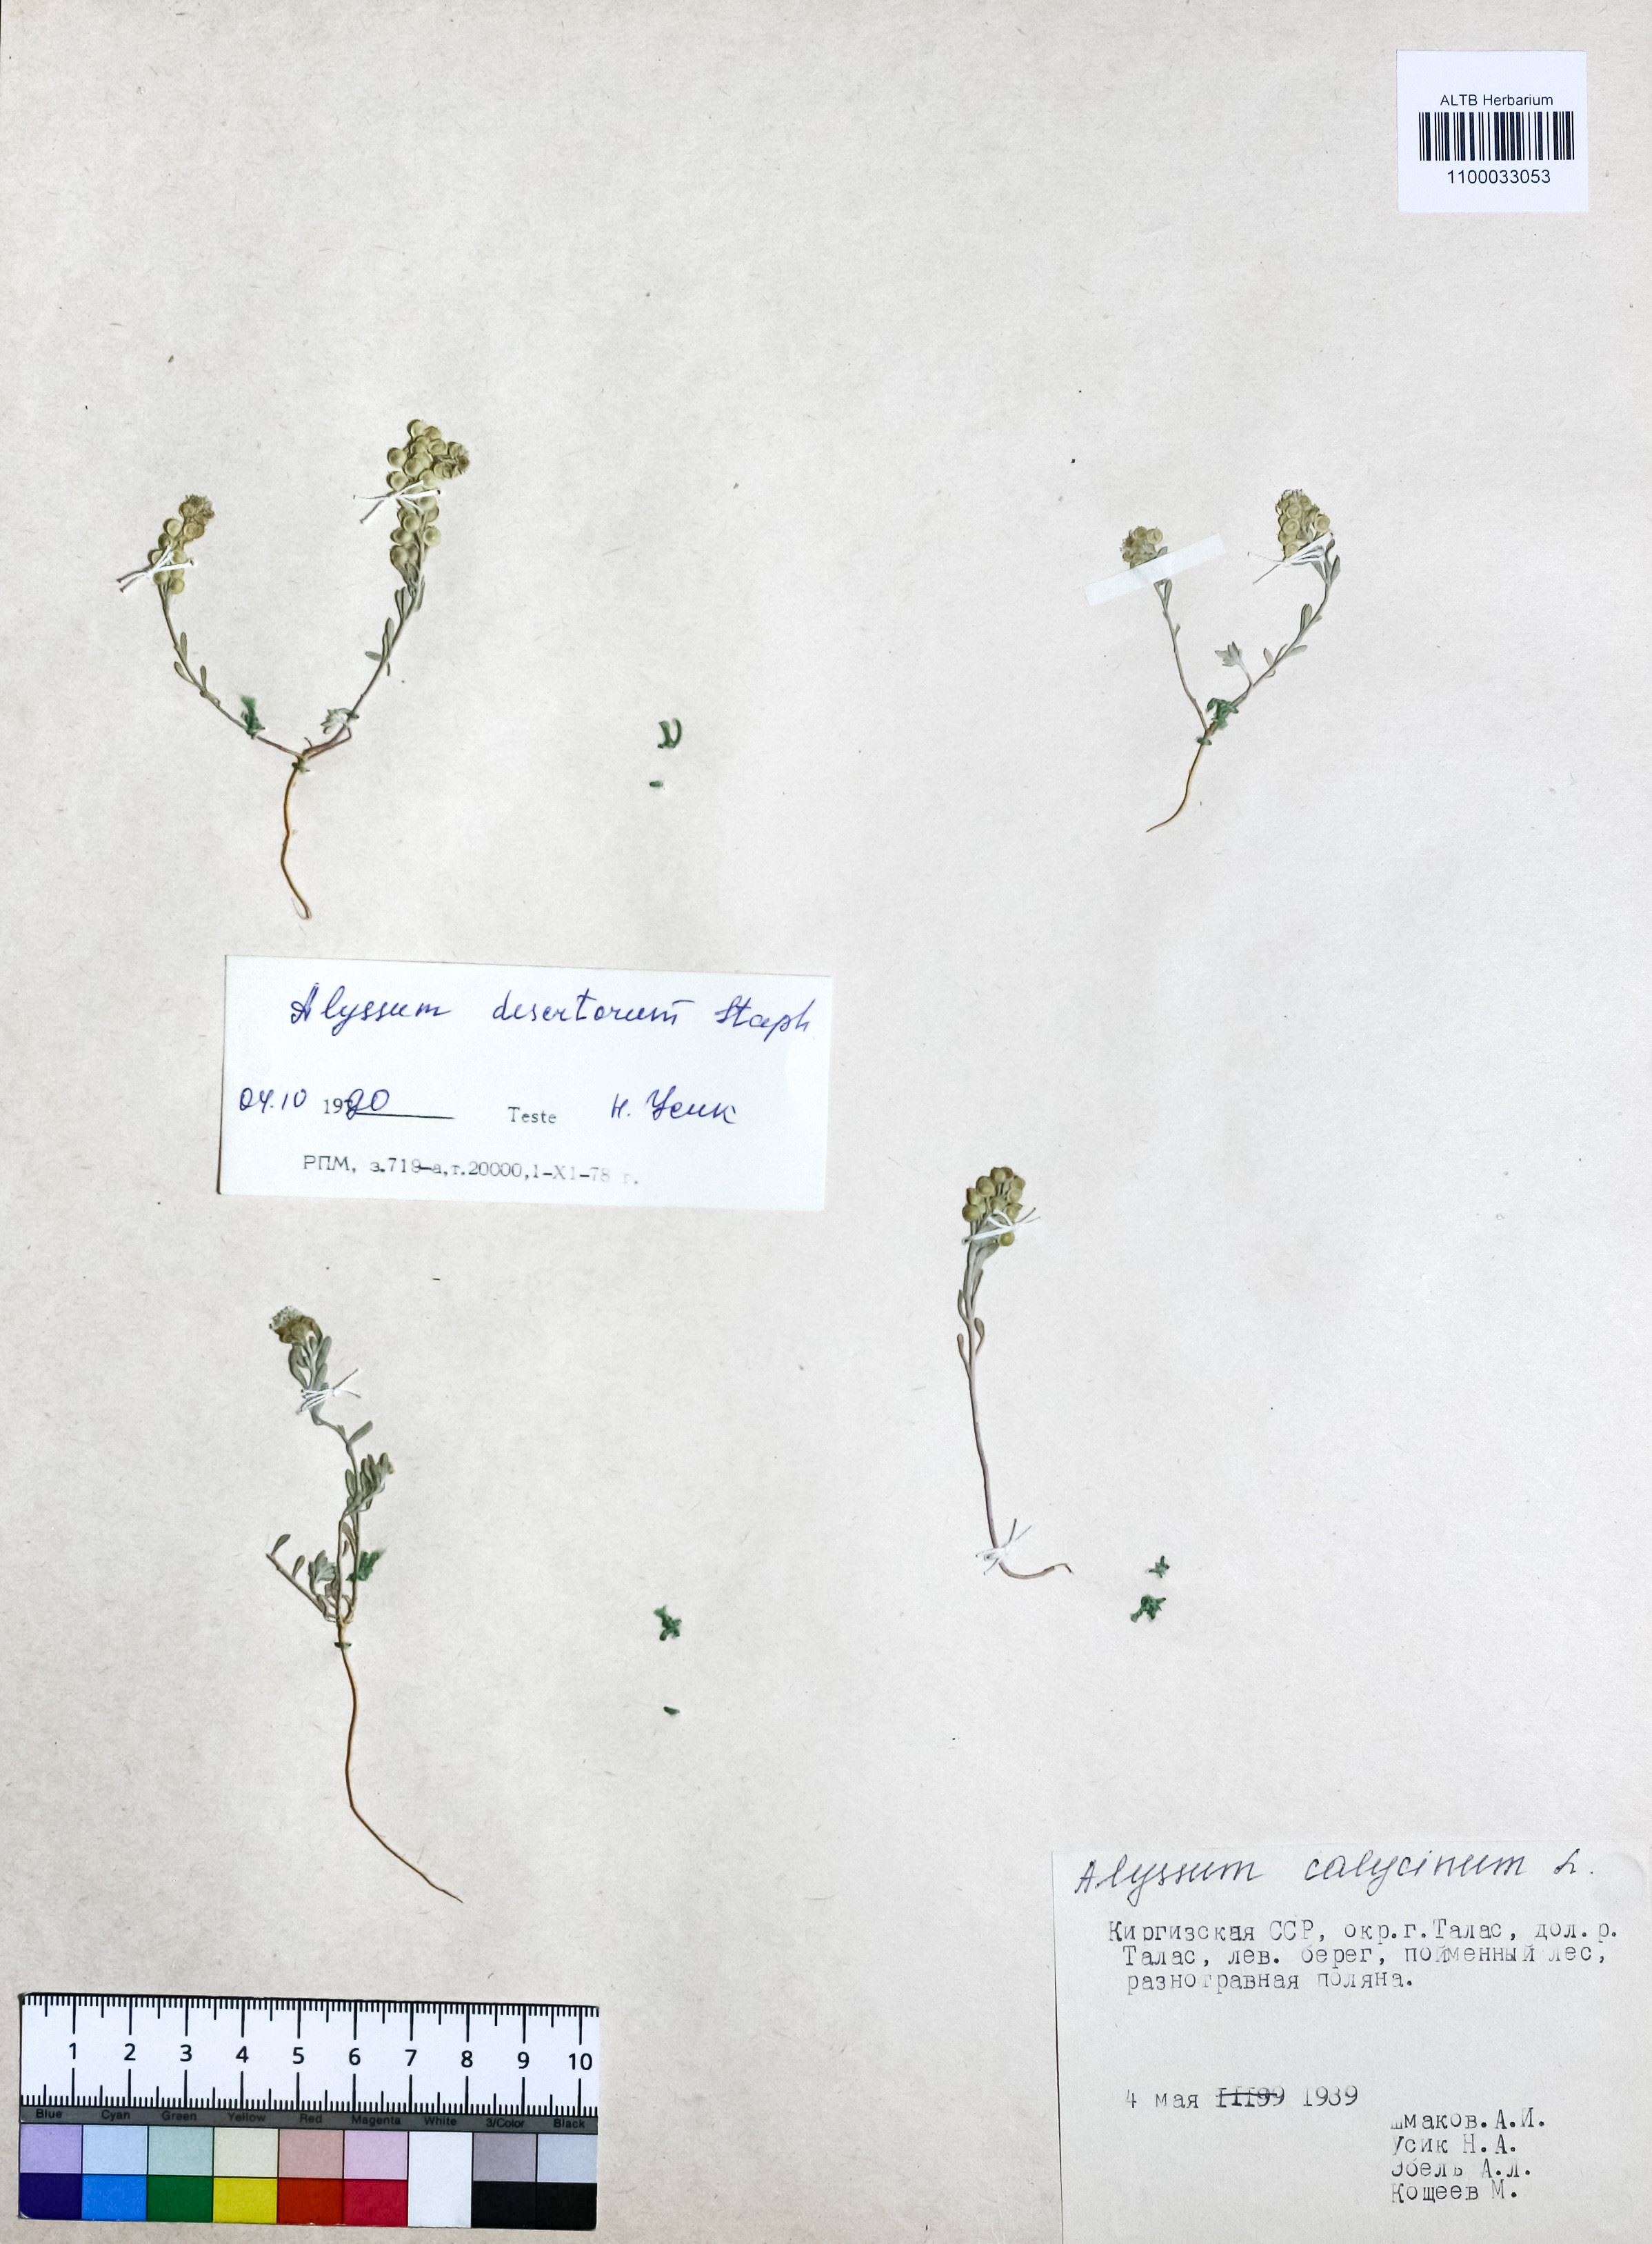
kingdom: Plantae
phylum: Tracheophyta
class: Magnoliopsida
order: Brassicales
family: Brassicaceae
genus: Alyssum
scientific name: Alyssum turkestanicum
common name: Desert alyssum
